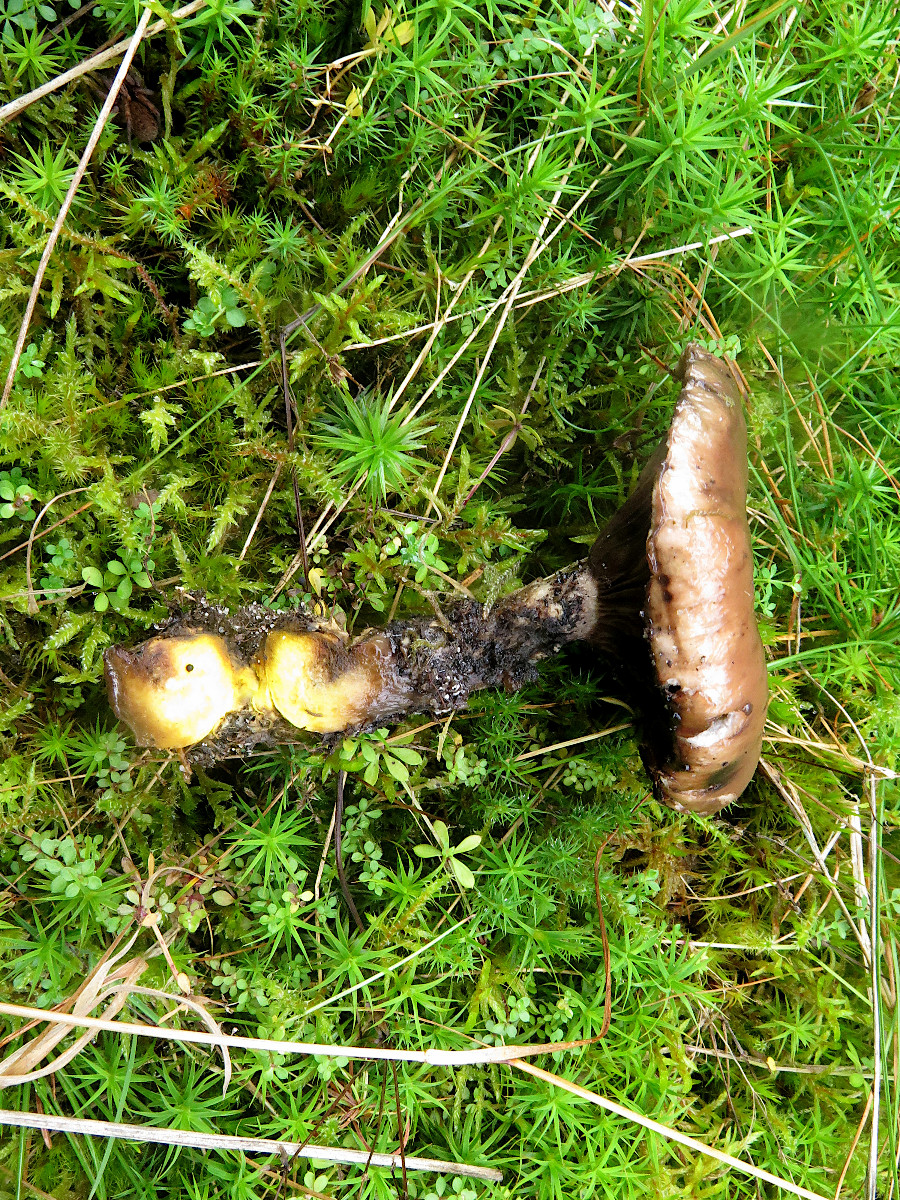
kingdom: Fungi
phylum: Basidiomycota
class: Agaricomycetes
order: Boletales
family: Gomphidiaceae
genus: Gomphidius
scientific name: Gomphidius glutinosus
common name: grå slimslør
